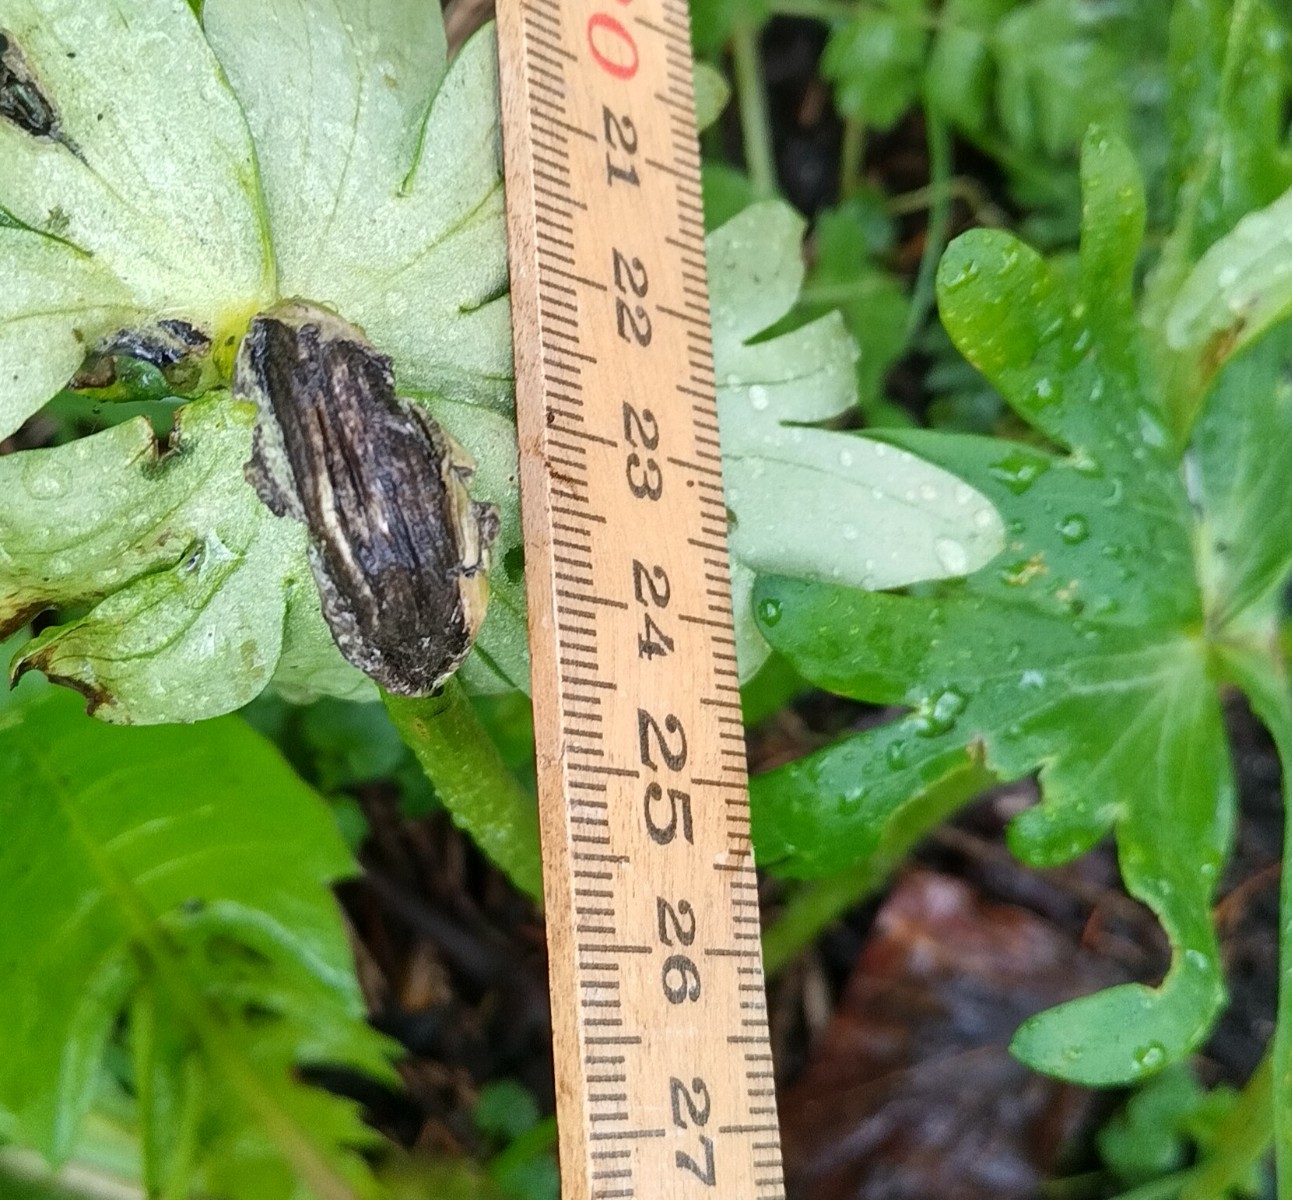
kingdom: Fungi
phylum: Basidiomycota
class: Ustilaginomycetes
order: Urocystidales
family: Urocystidaceae
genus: Urocystis
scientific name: Urocystis eranthidis
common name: erantis-brand
